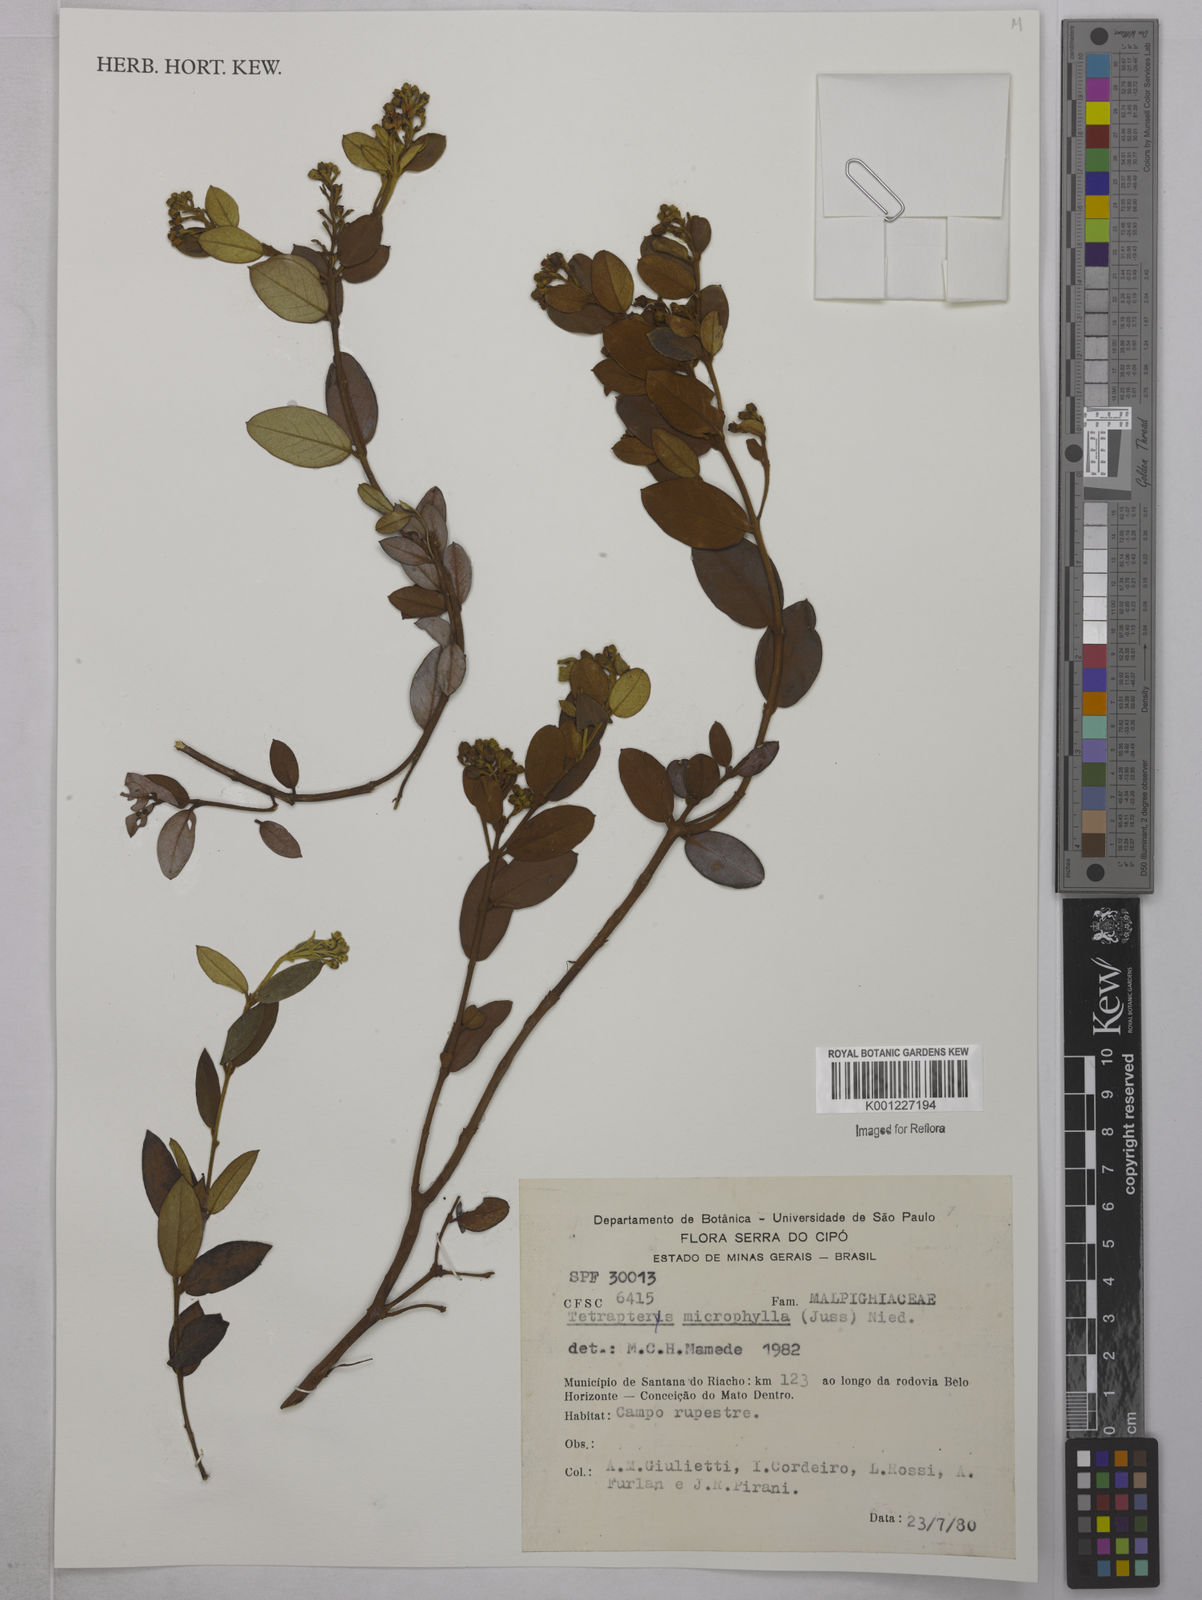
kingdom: Plantae
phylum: Tracheophyta
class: Magnoliopsida
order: Malpighiales
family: Malpighiaceae
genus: Glicophyllum
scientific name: Glicophyllum microphyllum
